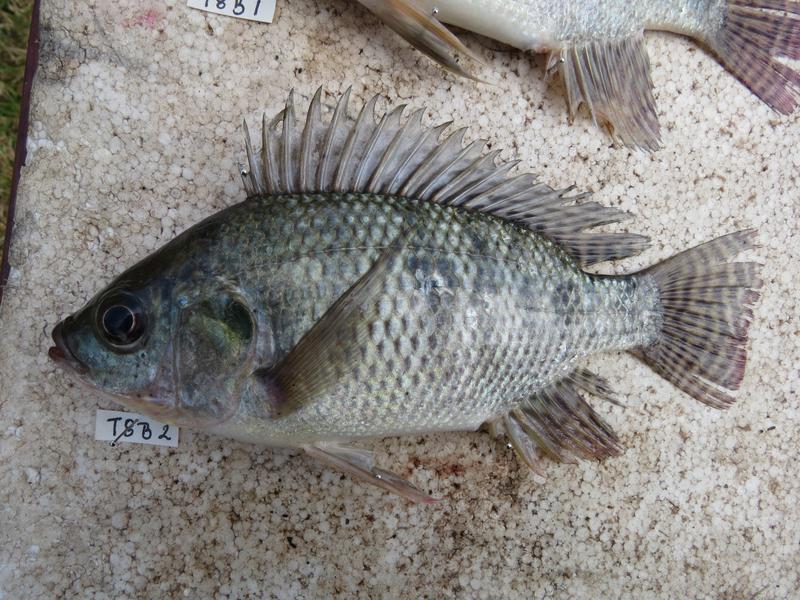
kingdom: Animalia
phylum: Chordata
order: Perciformes
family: Cichlidae
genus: Oreochromis
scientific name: Oreochromis niloticus
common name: Nile tilapia
